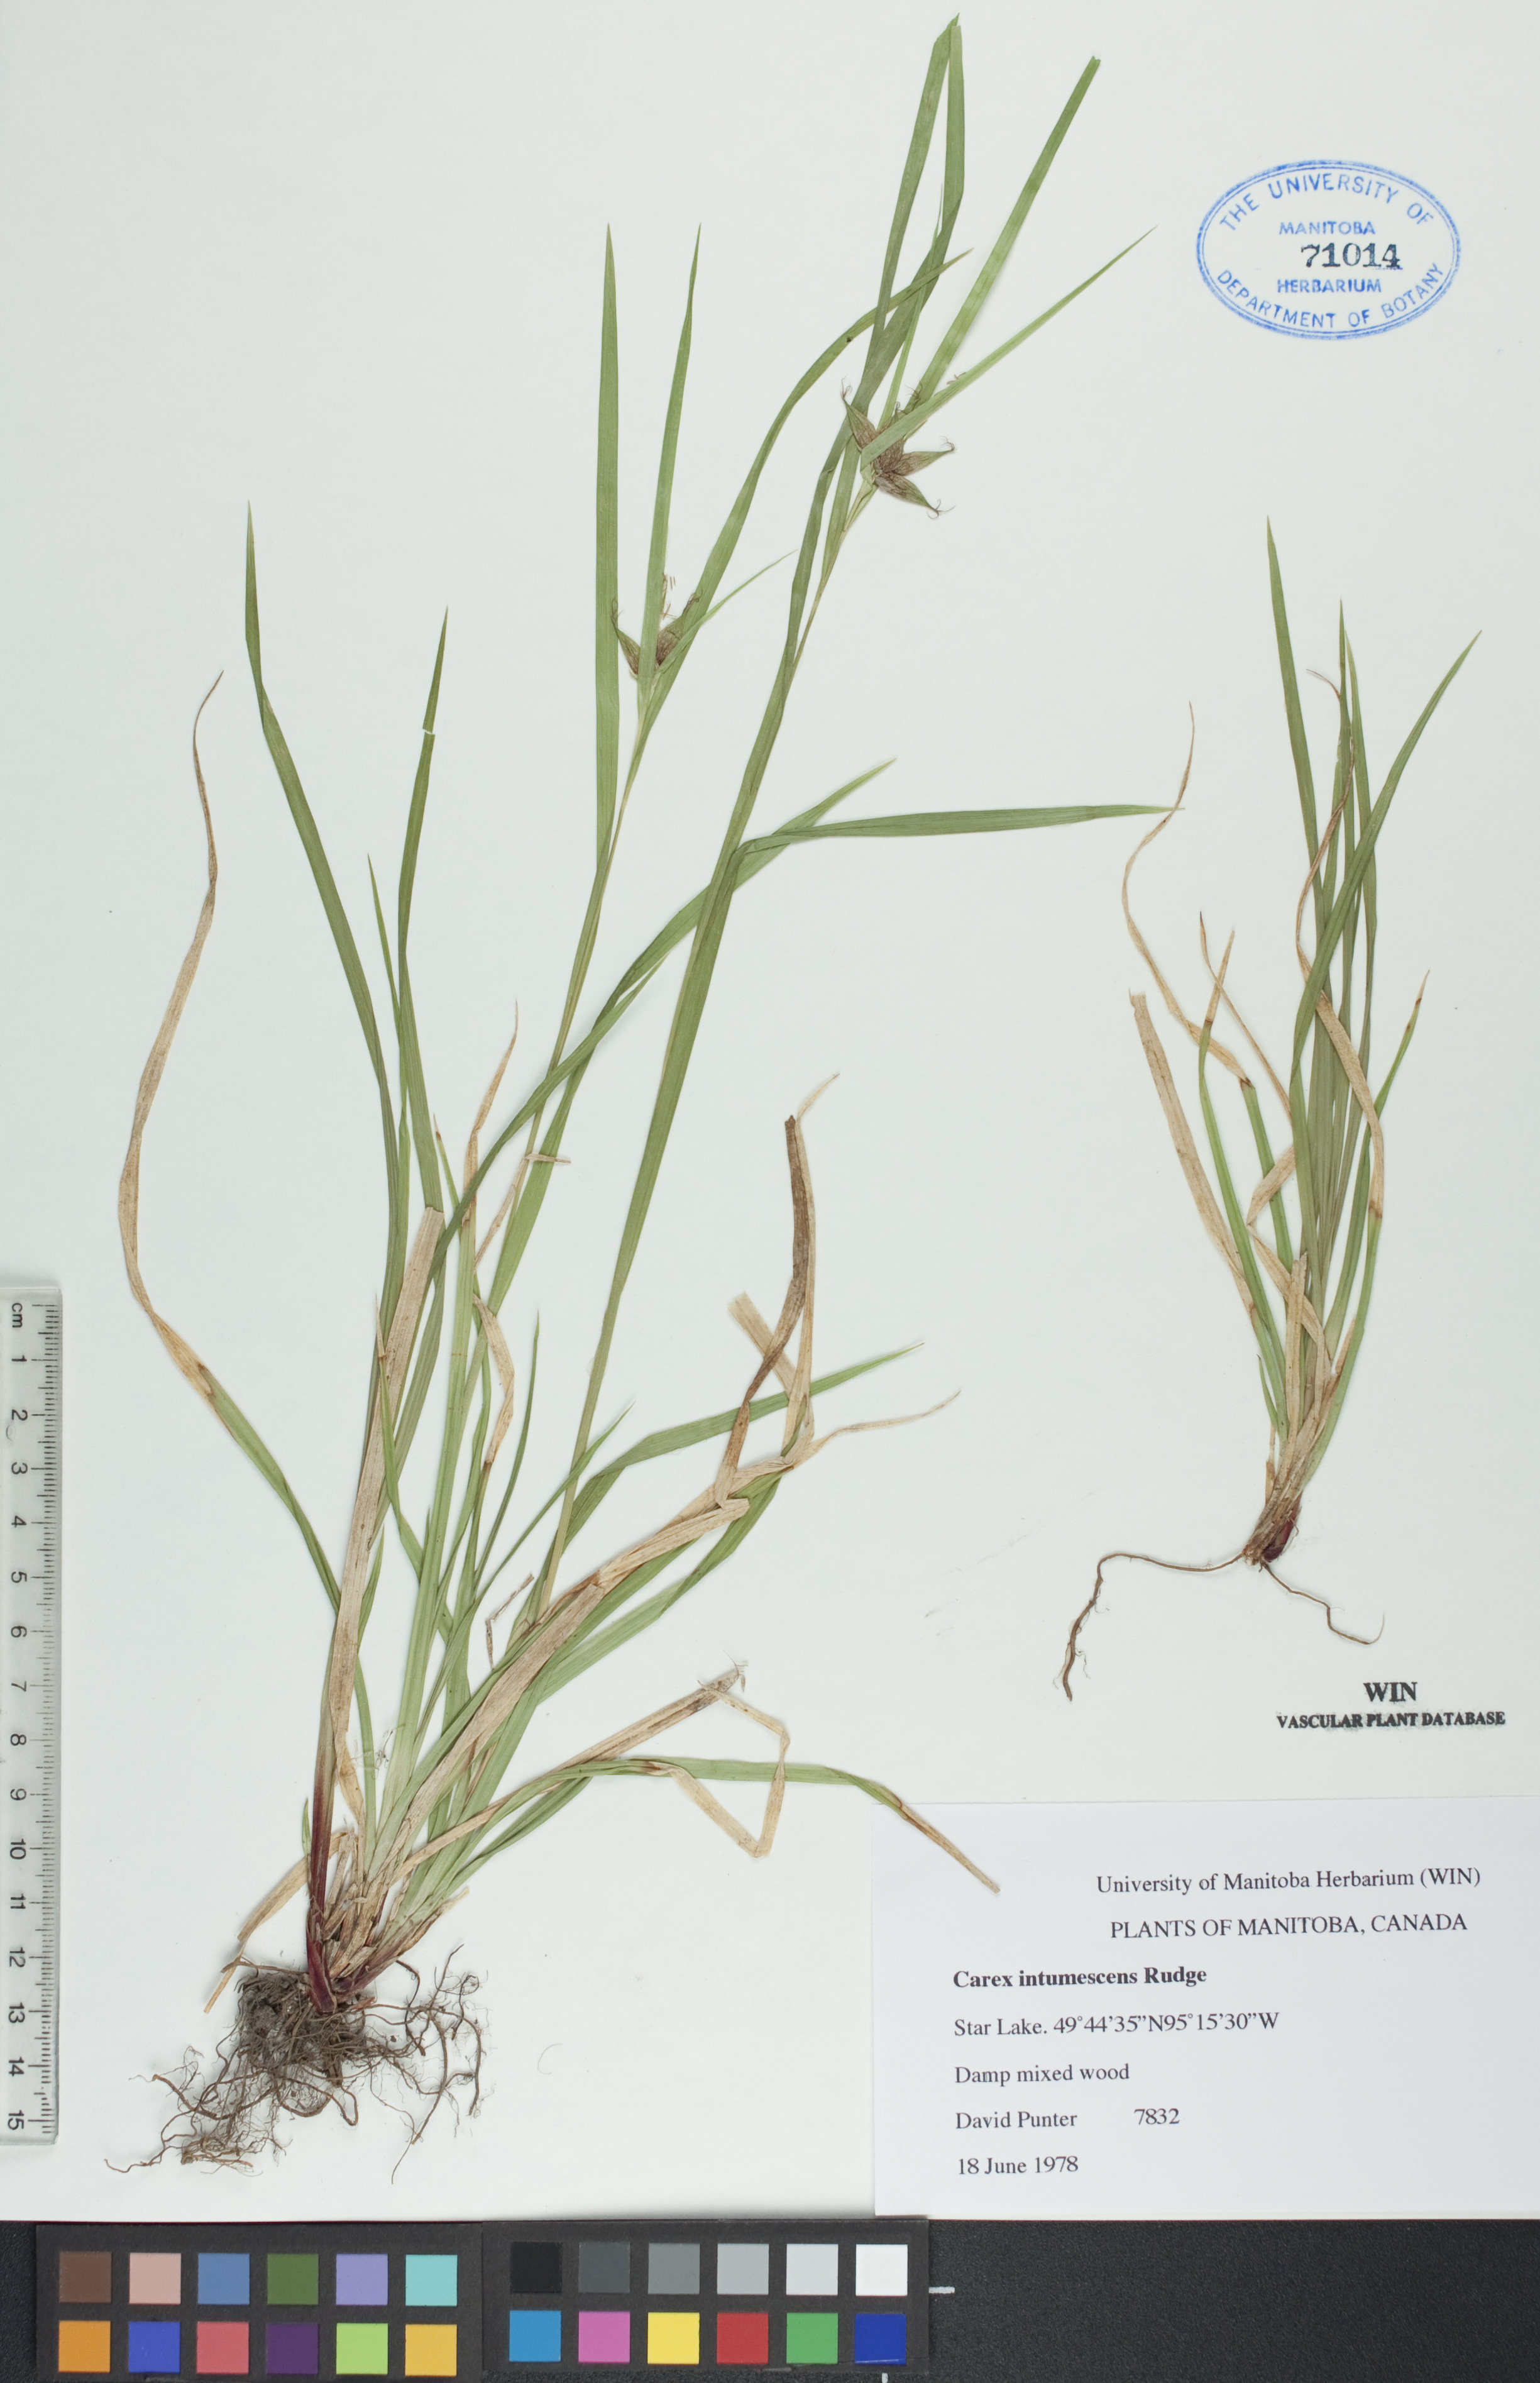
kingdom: Plantae
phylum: Tracheophyta
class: Liliopsida
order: Poales
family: Cyperaceae
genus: Carex
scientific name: Carex intumescens
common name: Greater bladder sedge
